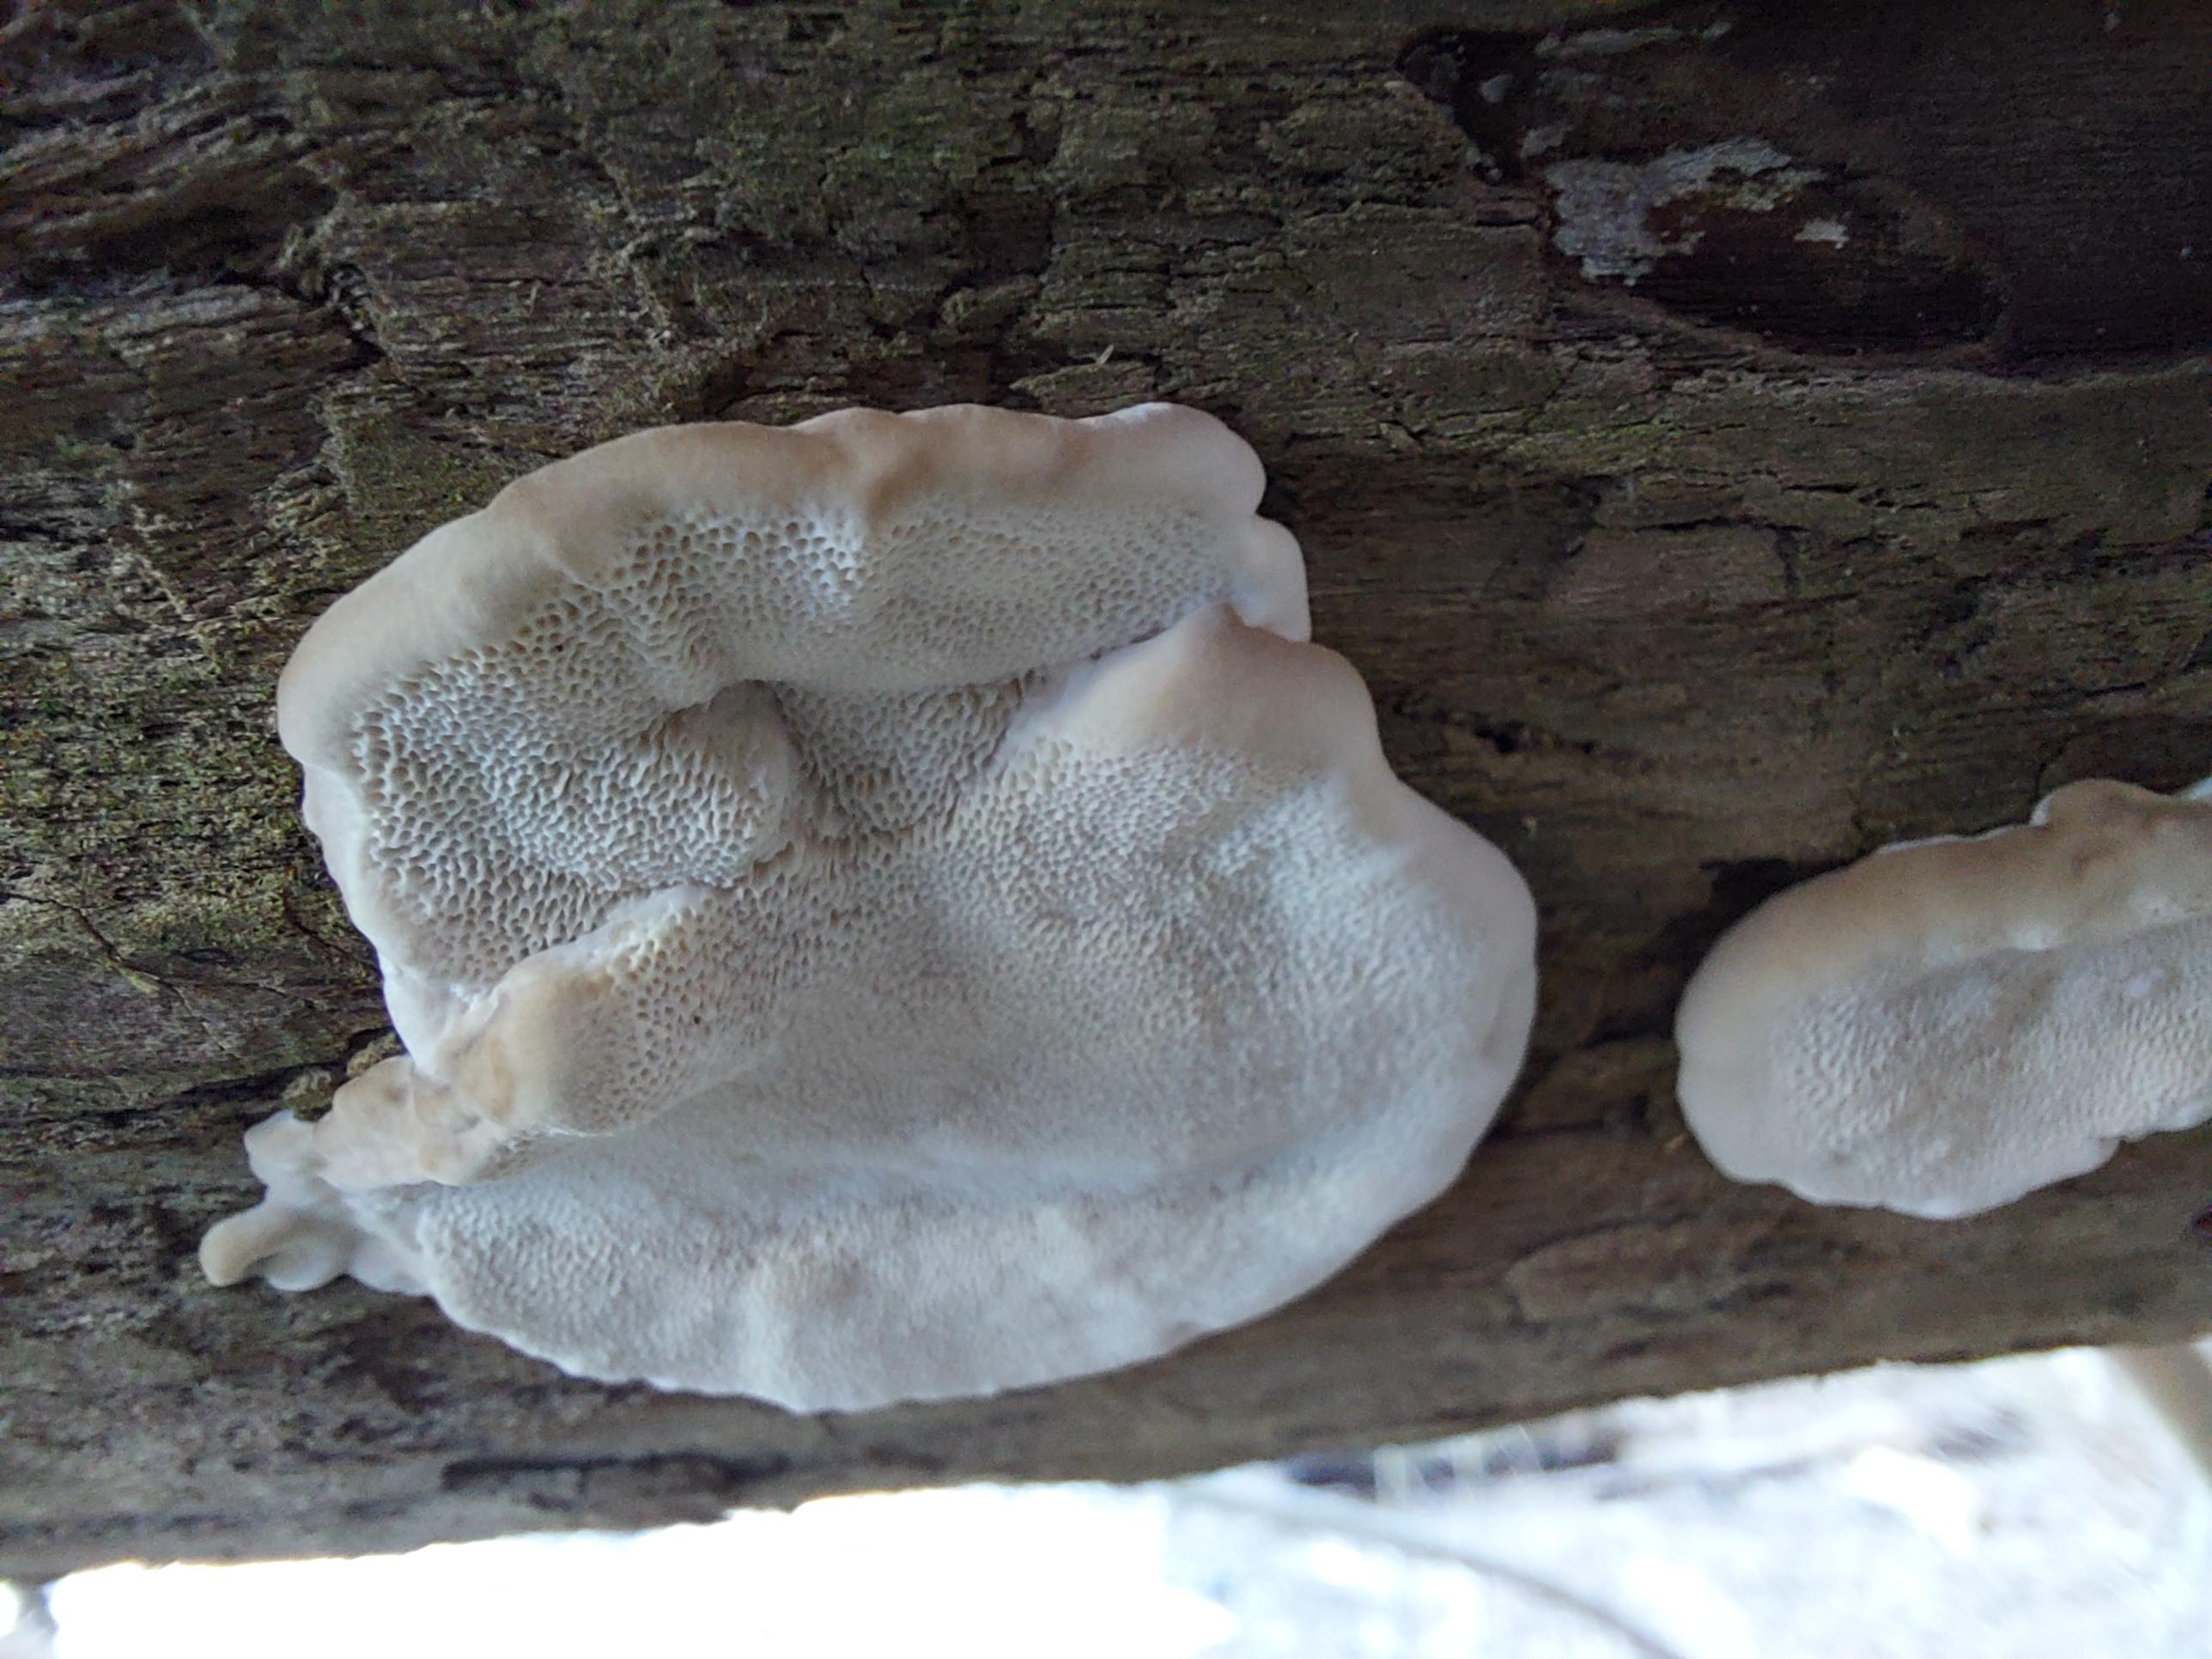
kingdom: Fungi
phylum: Basidiomycota
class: Agaricomycetes
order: Polyporales
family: Polyporaceae
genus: Trametes
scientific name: Trametes
